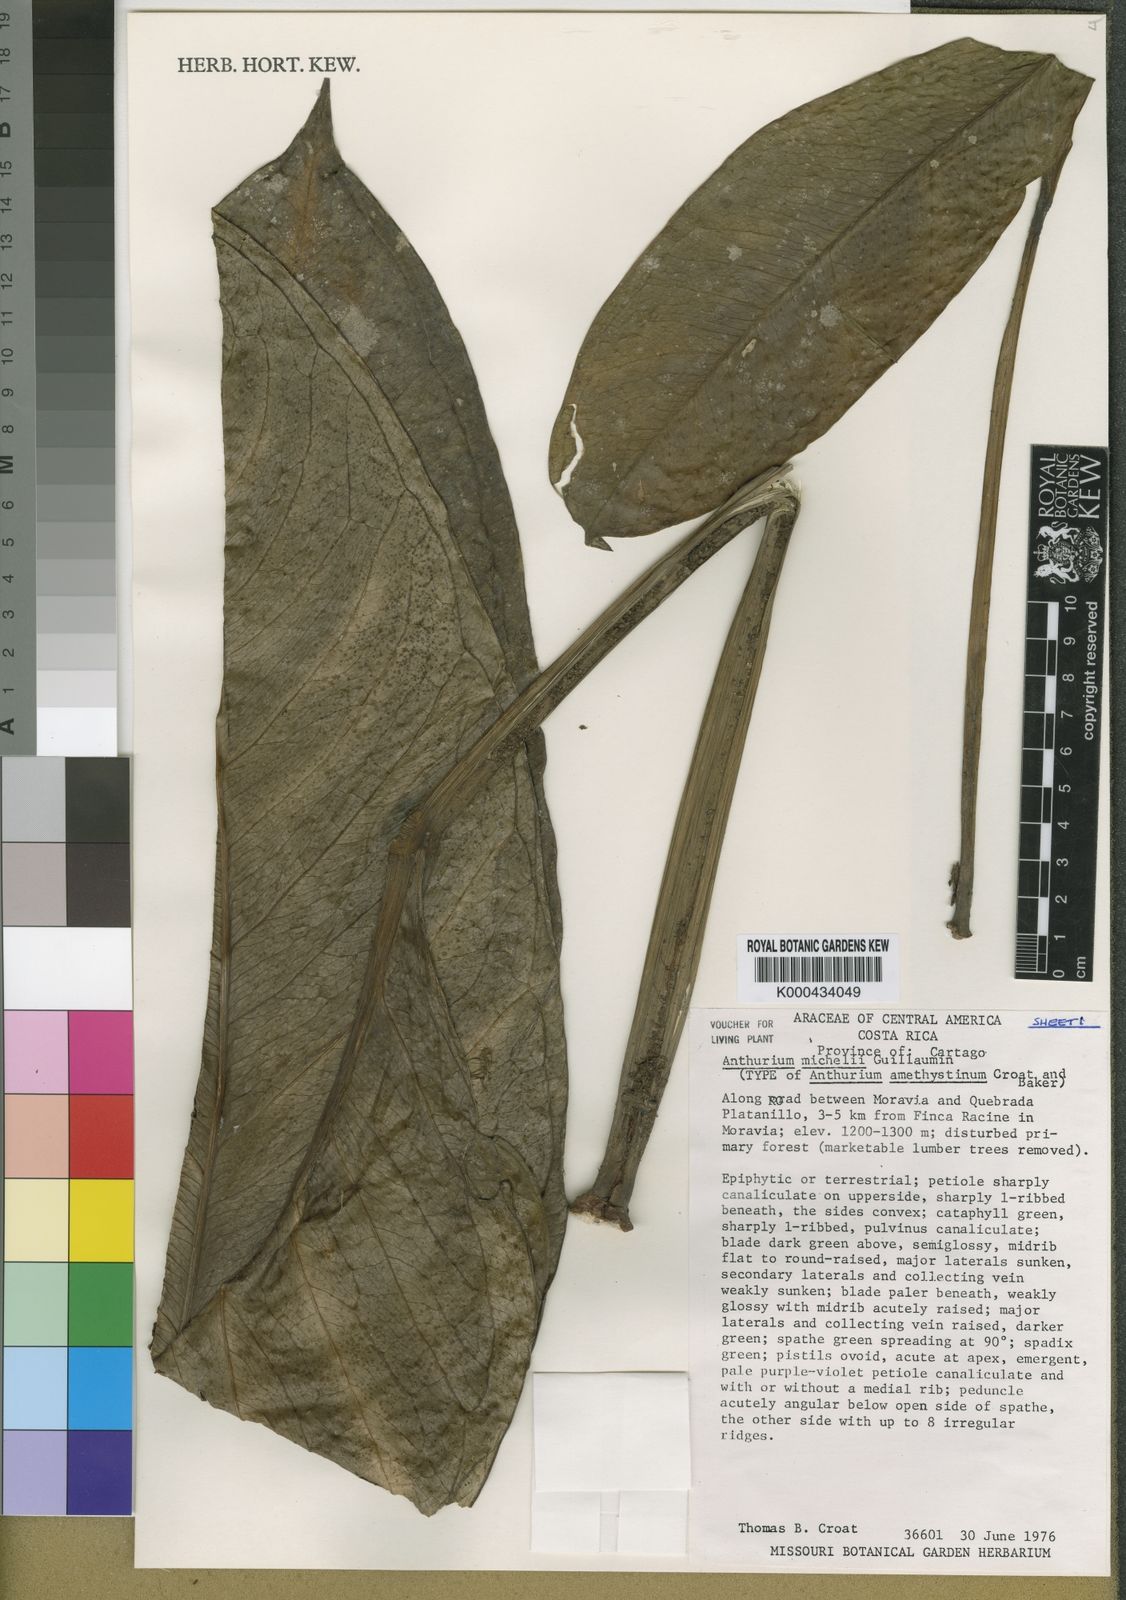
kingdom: Plantae
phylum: Tracheophyta
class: Liliopsida
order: Alismatales
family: Araceae
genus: Anthurium
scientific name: Anthurium michelii
